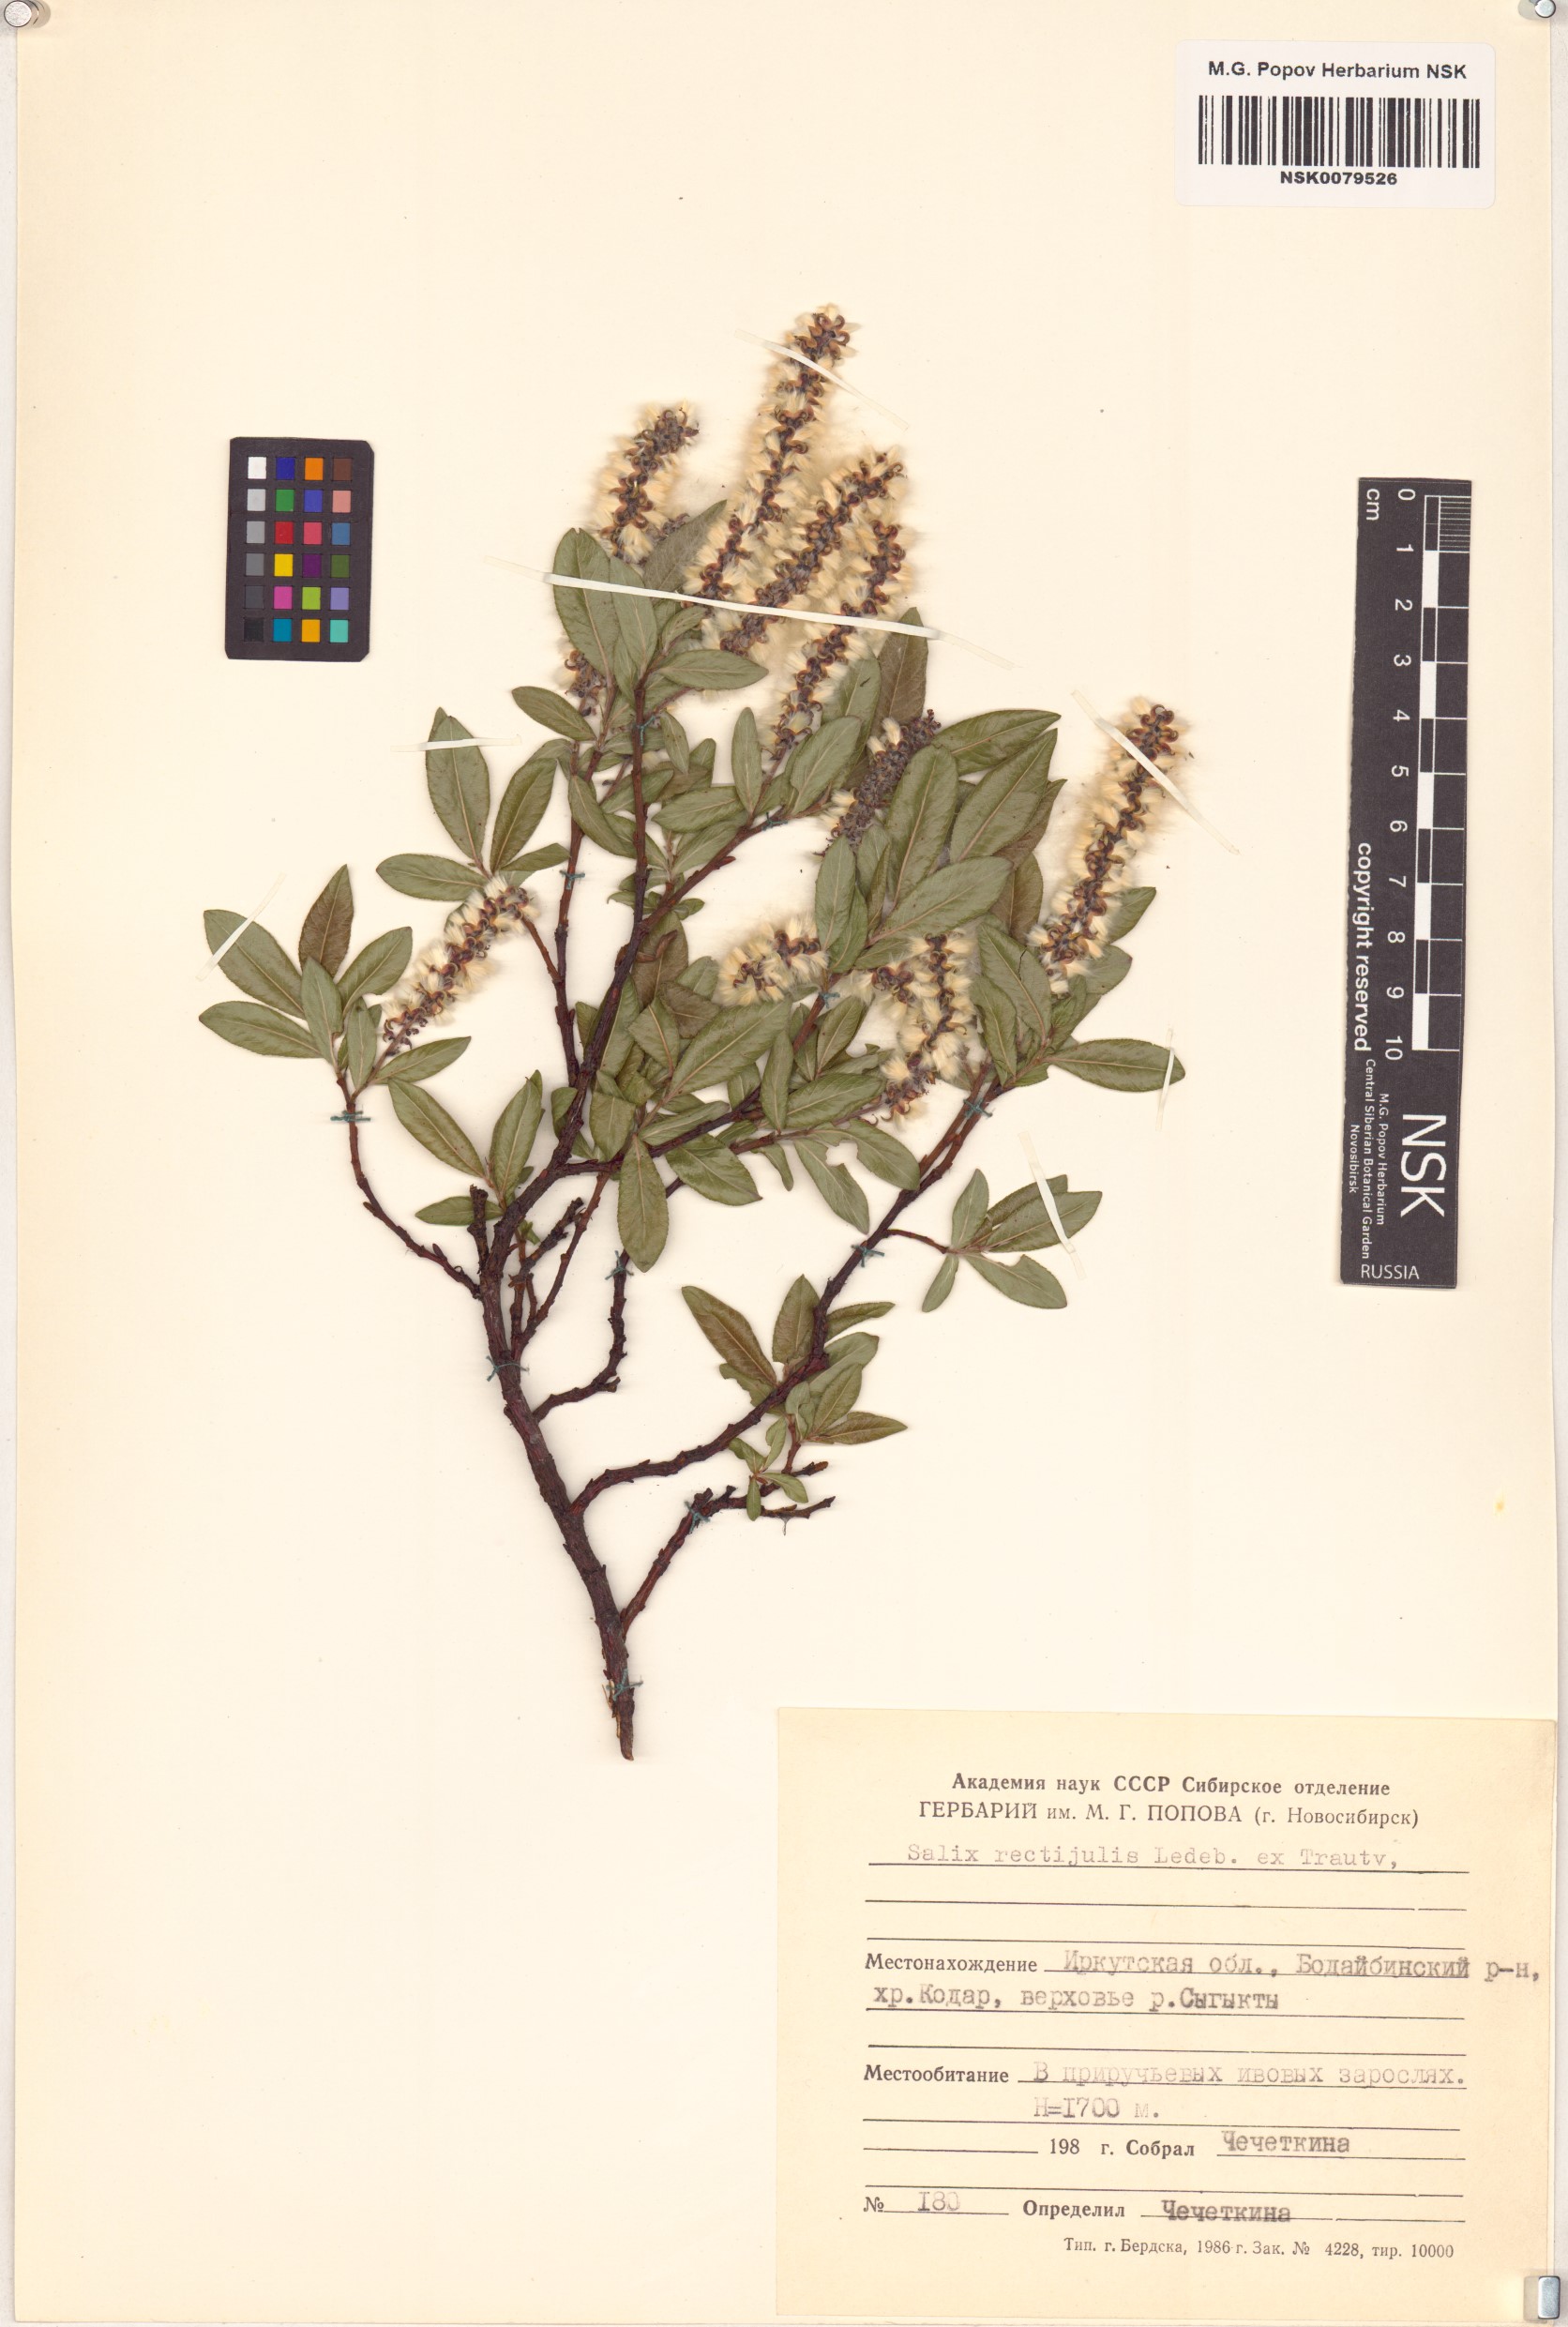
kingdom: Plantae
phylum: Tracheophyta
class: Magnoliopsida
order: Malpighiales
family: Salicaceae
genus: Salix
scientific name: Salix rectijulis
